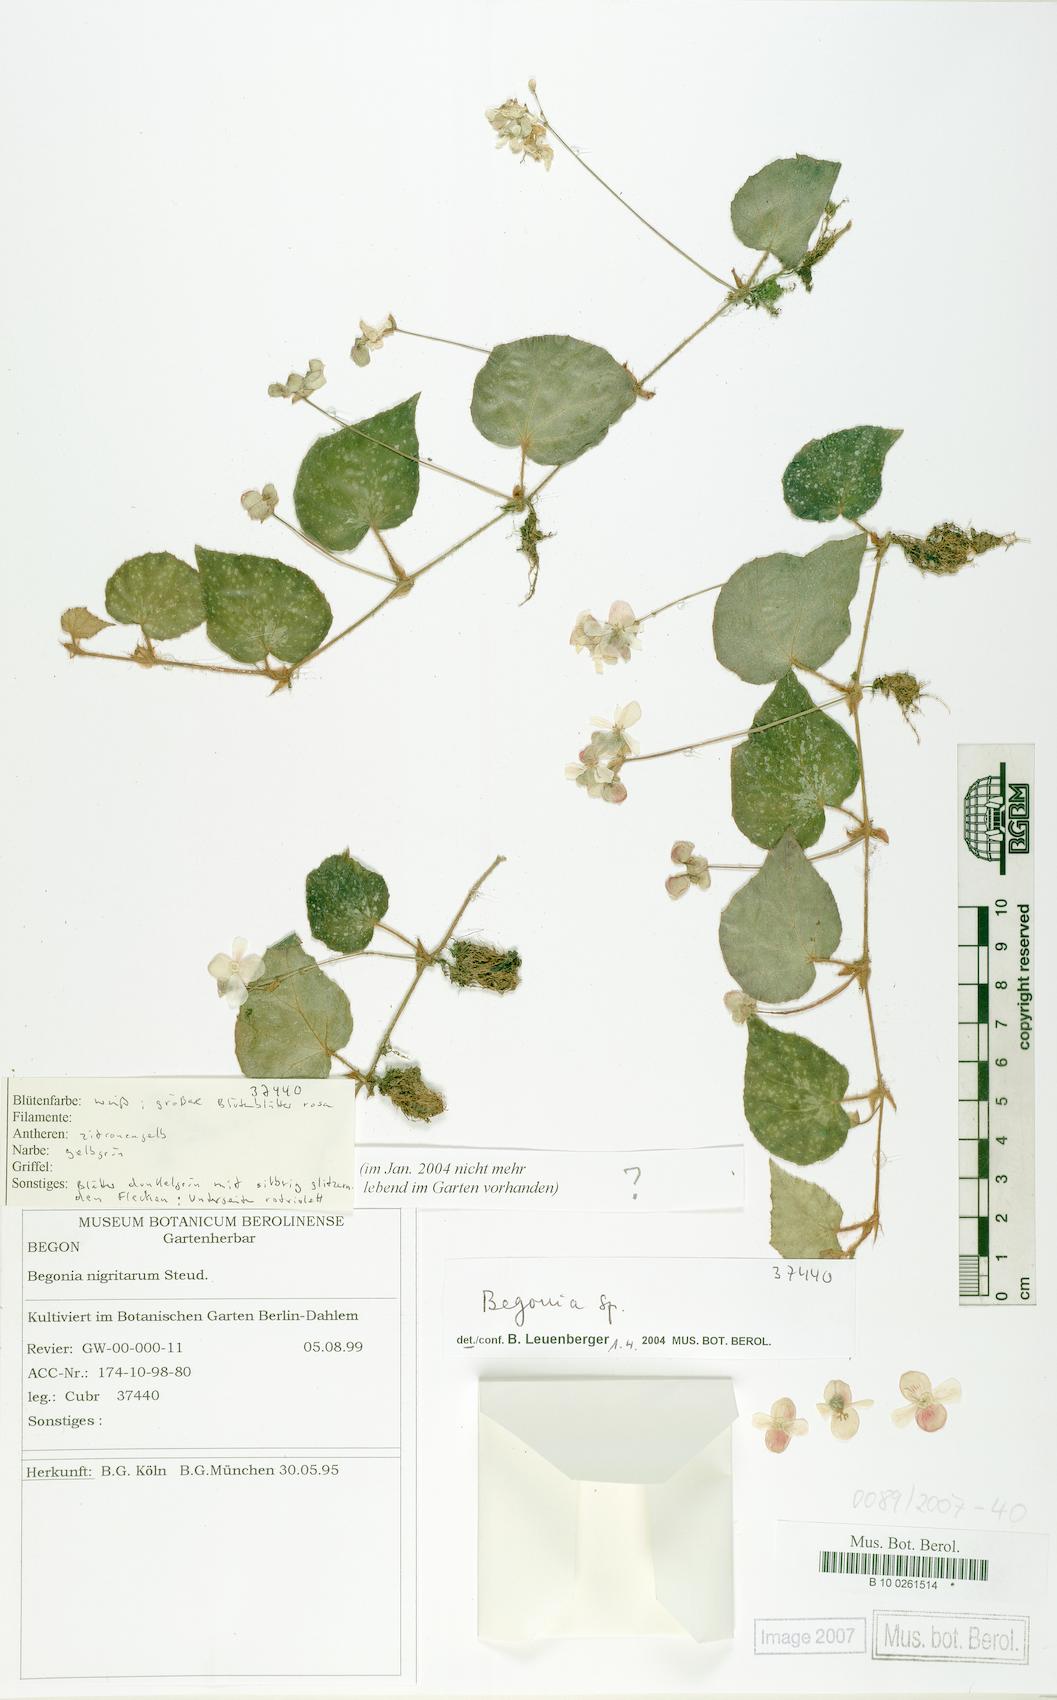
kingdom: Plantae
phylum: Tracheophyta
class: Magnoliopsida
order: Cucurbitales
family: Begoniaceae
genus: Begonia
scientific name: Begonia
